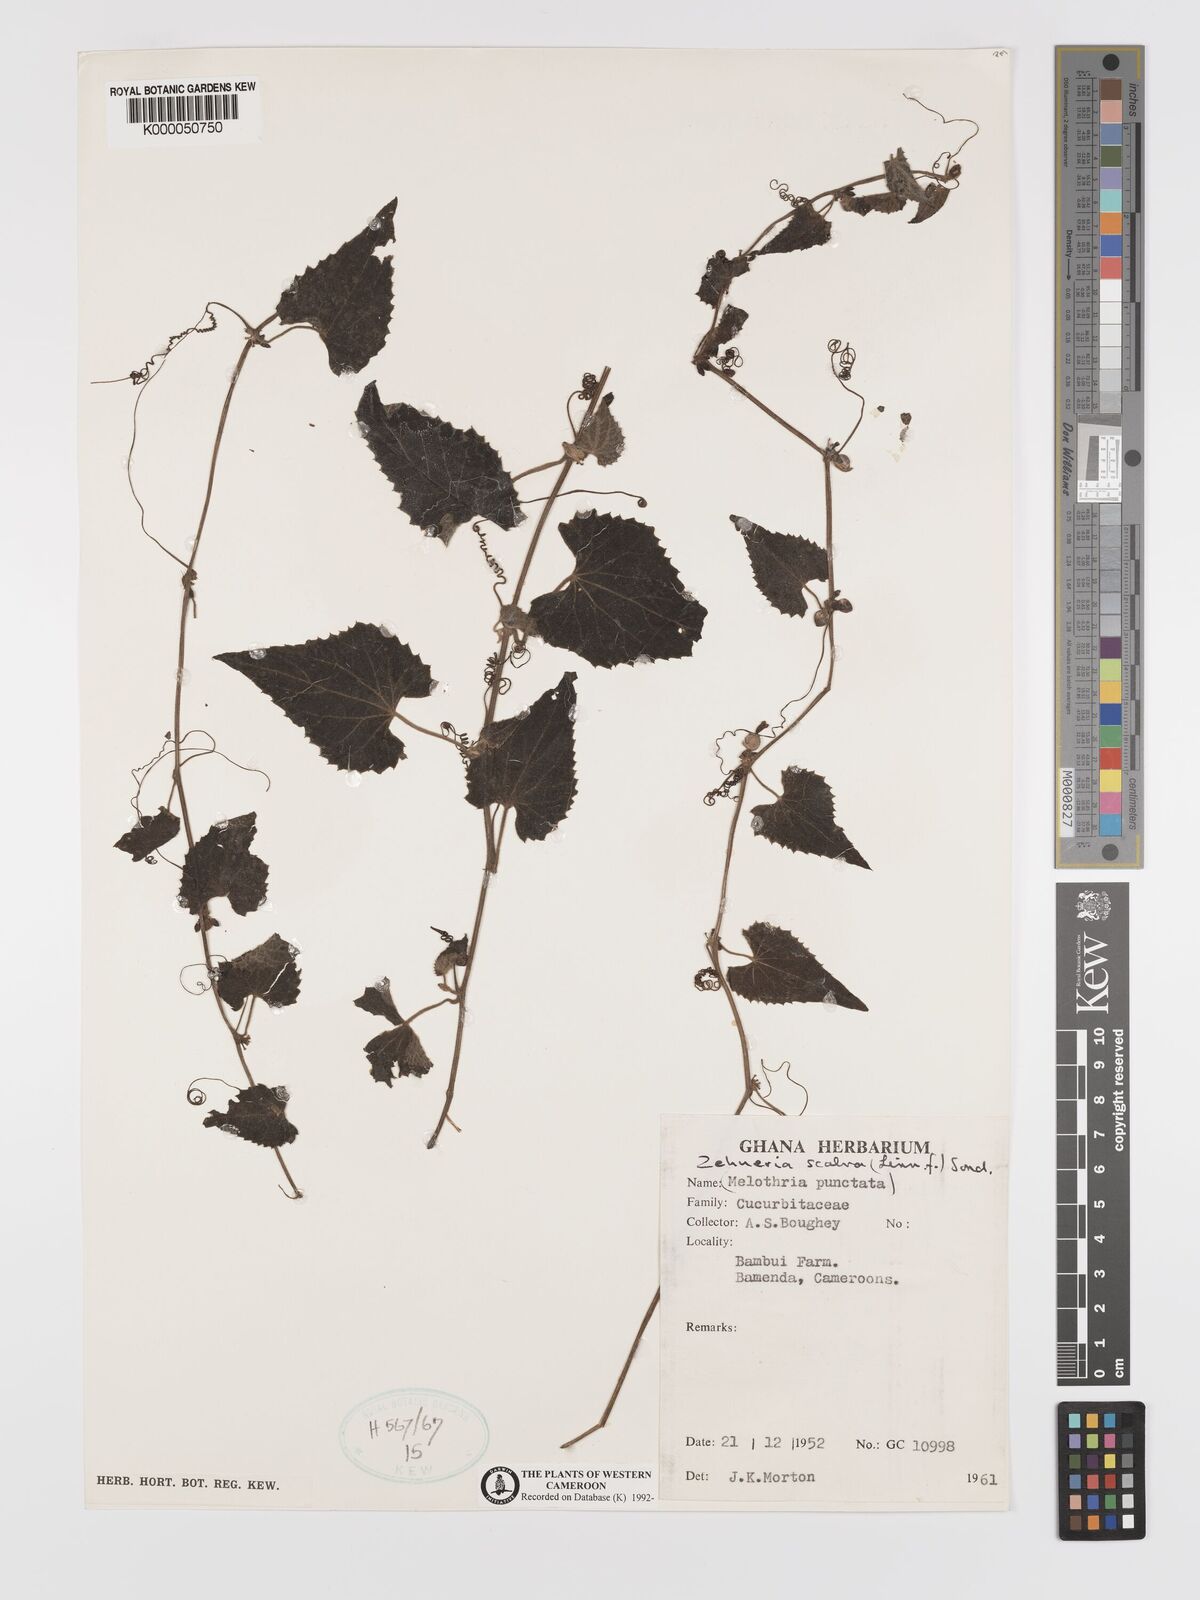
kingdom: Plantae
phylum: Tracheophyta
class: Magnoliopsida
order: Cucurbitales
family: Cucurbitaceae
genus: Zehneria
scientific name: Zehneria scabra
